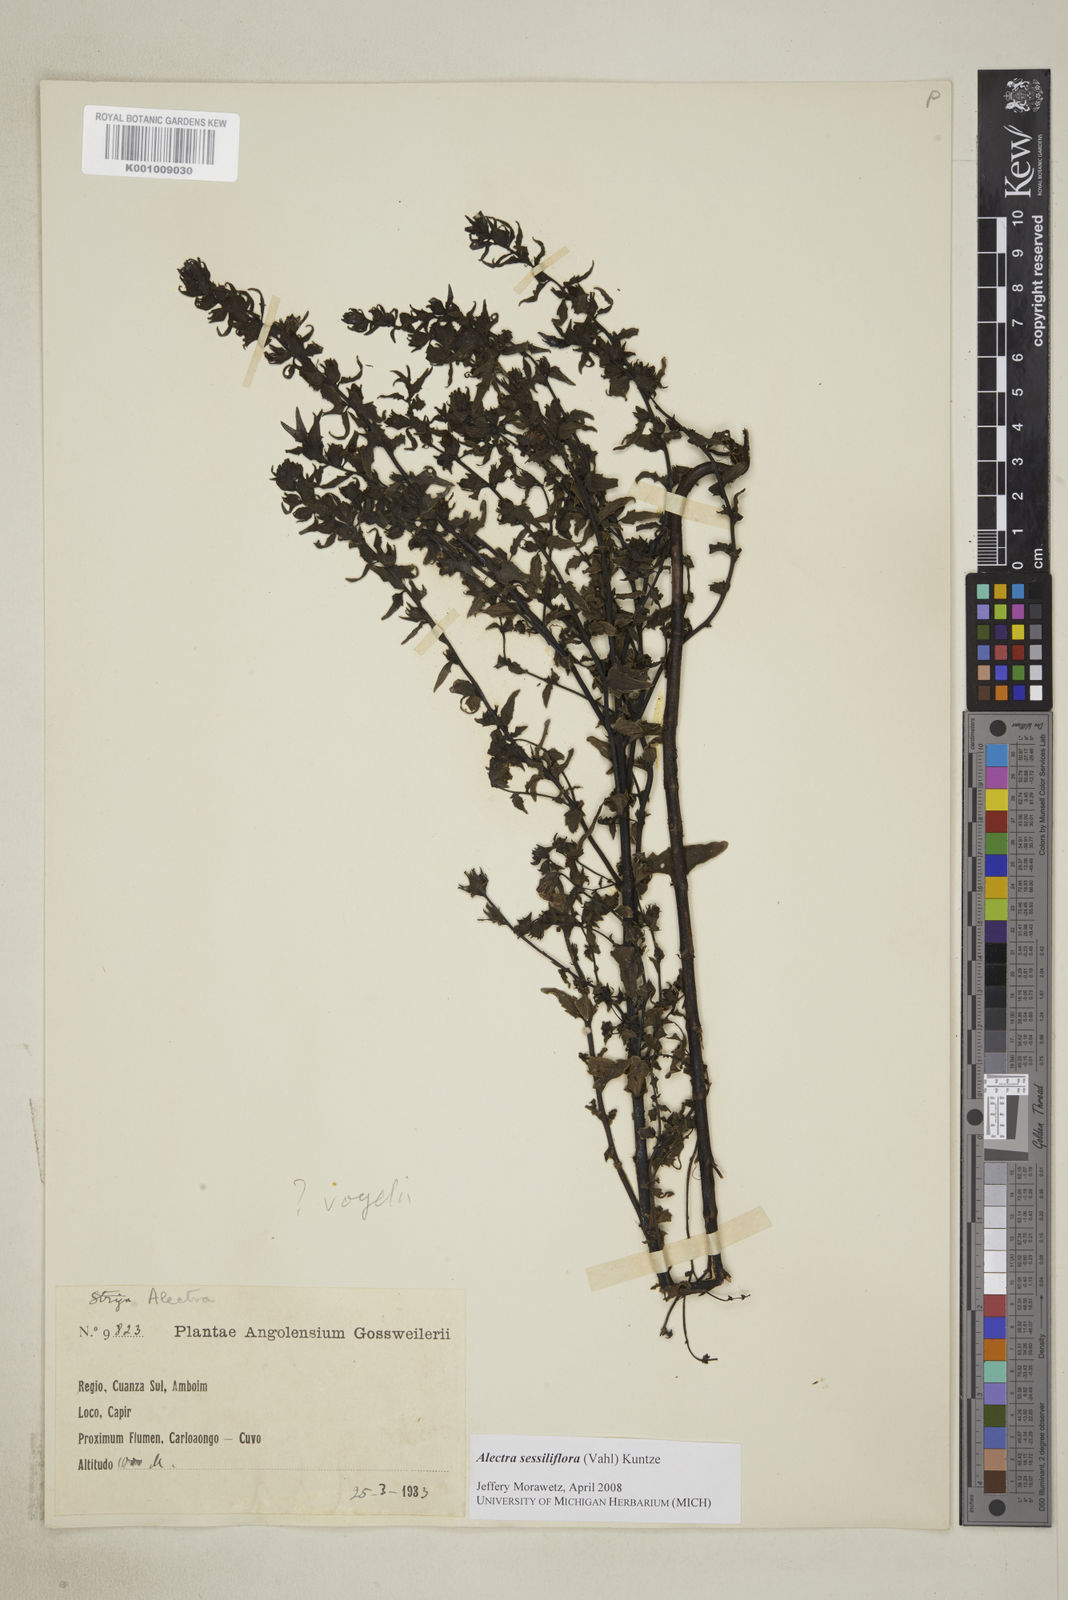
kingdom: Plantae
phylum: Tracheophyta
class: Magnoliopsida
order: Lamiales
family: Orobanchaceae
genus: Alectra
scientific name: Alectra sessiliflora
